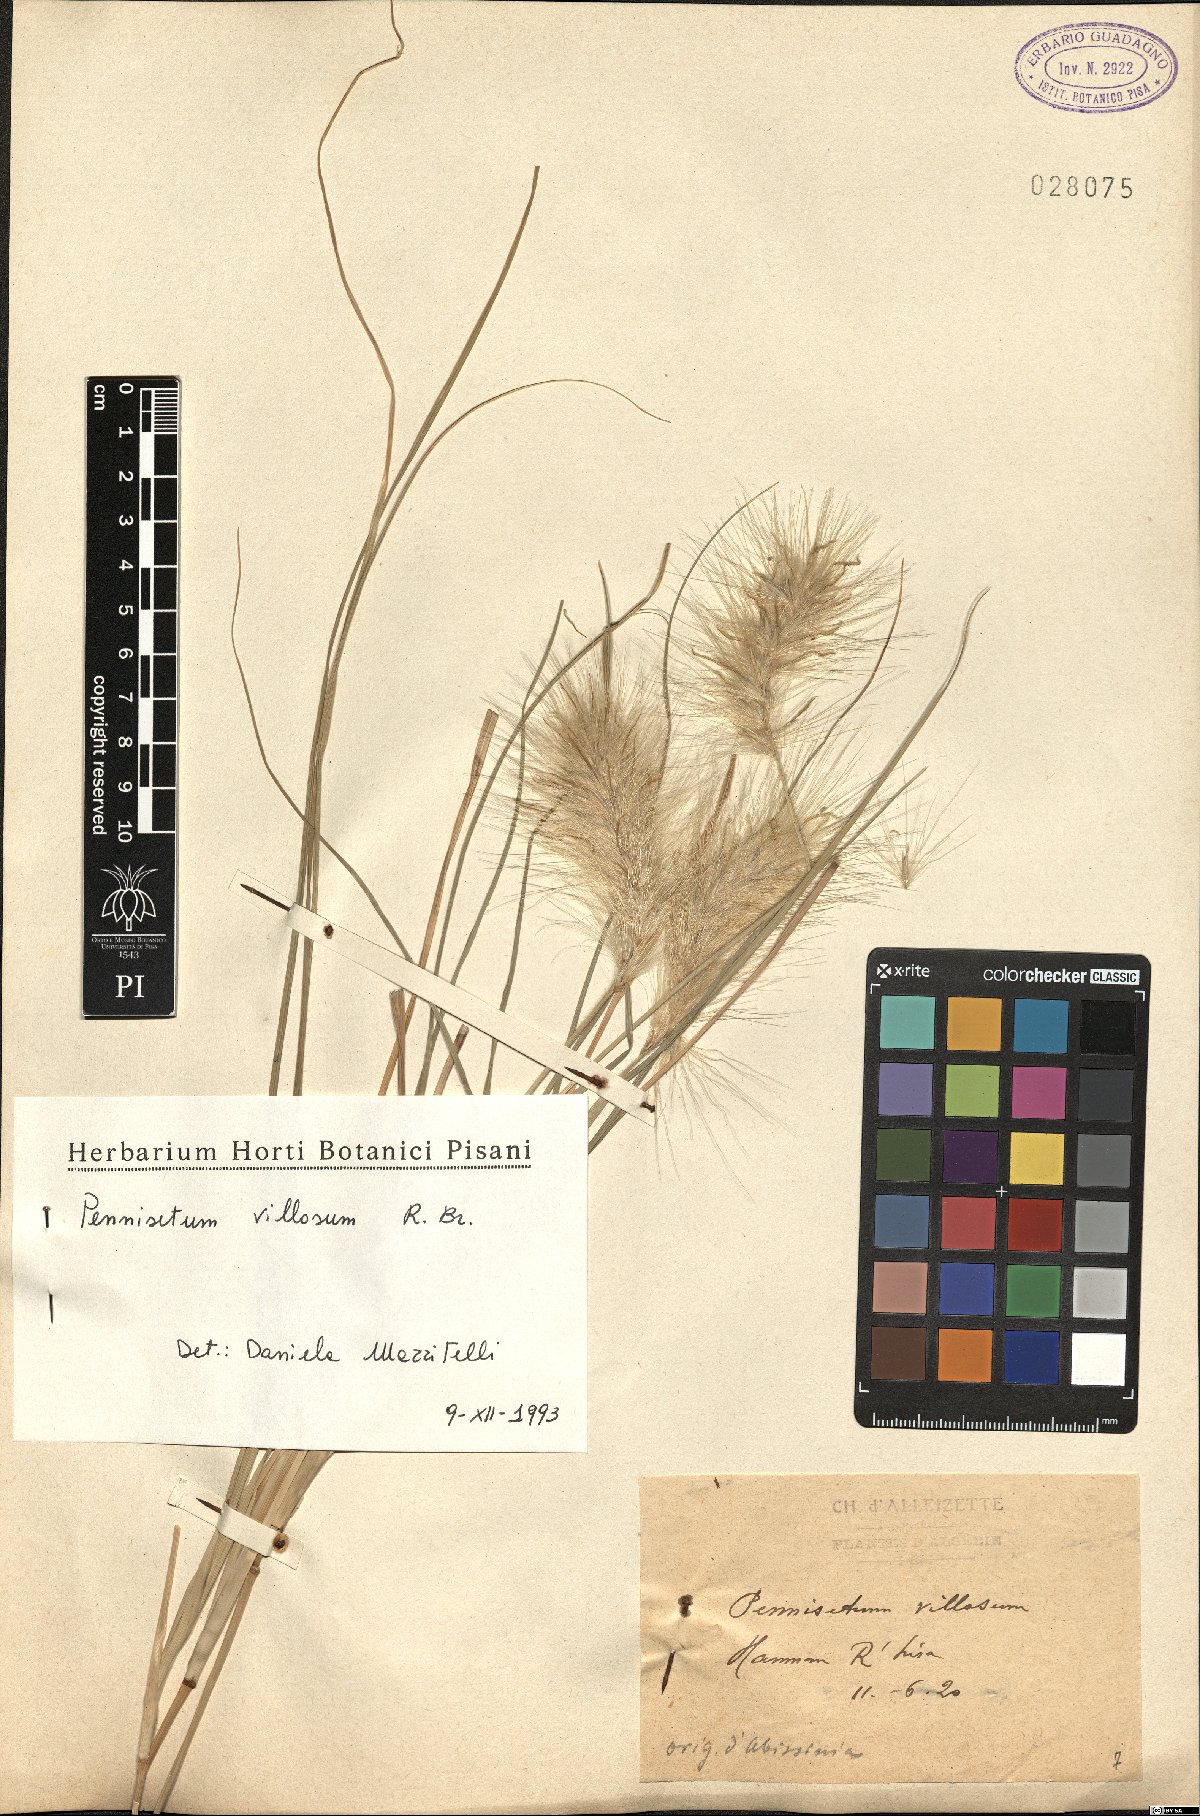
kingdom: Plantae
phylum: Tracheophyta
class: Liliopsida
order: Poales
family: Poaceae
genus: Cenchrus
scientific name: Cenchrus longisetus
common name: Feathertop
